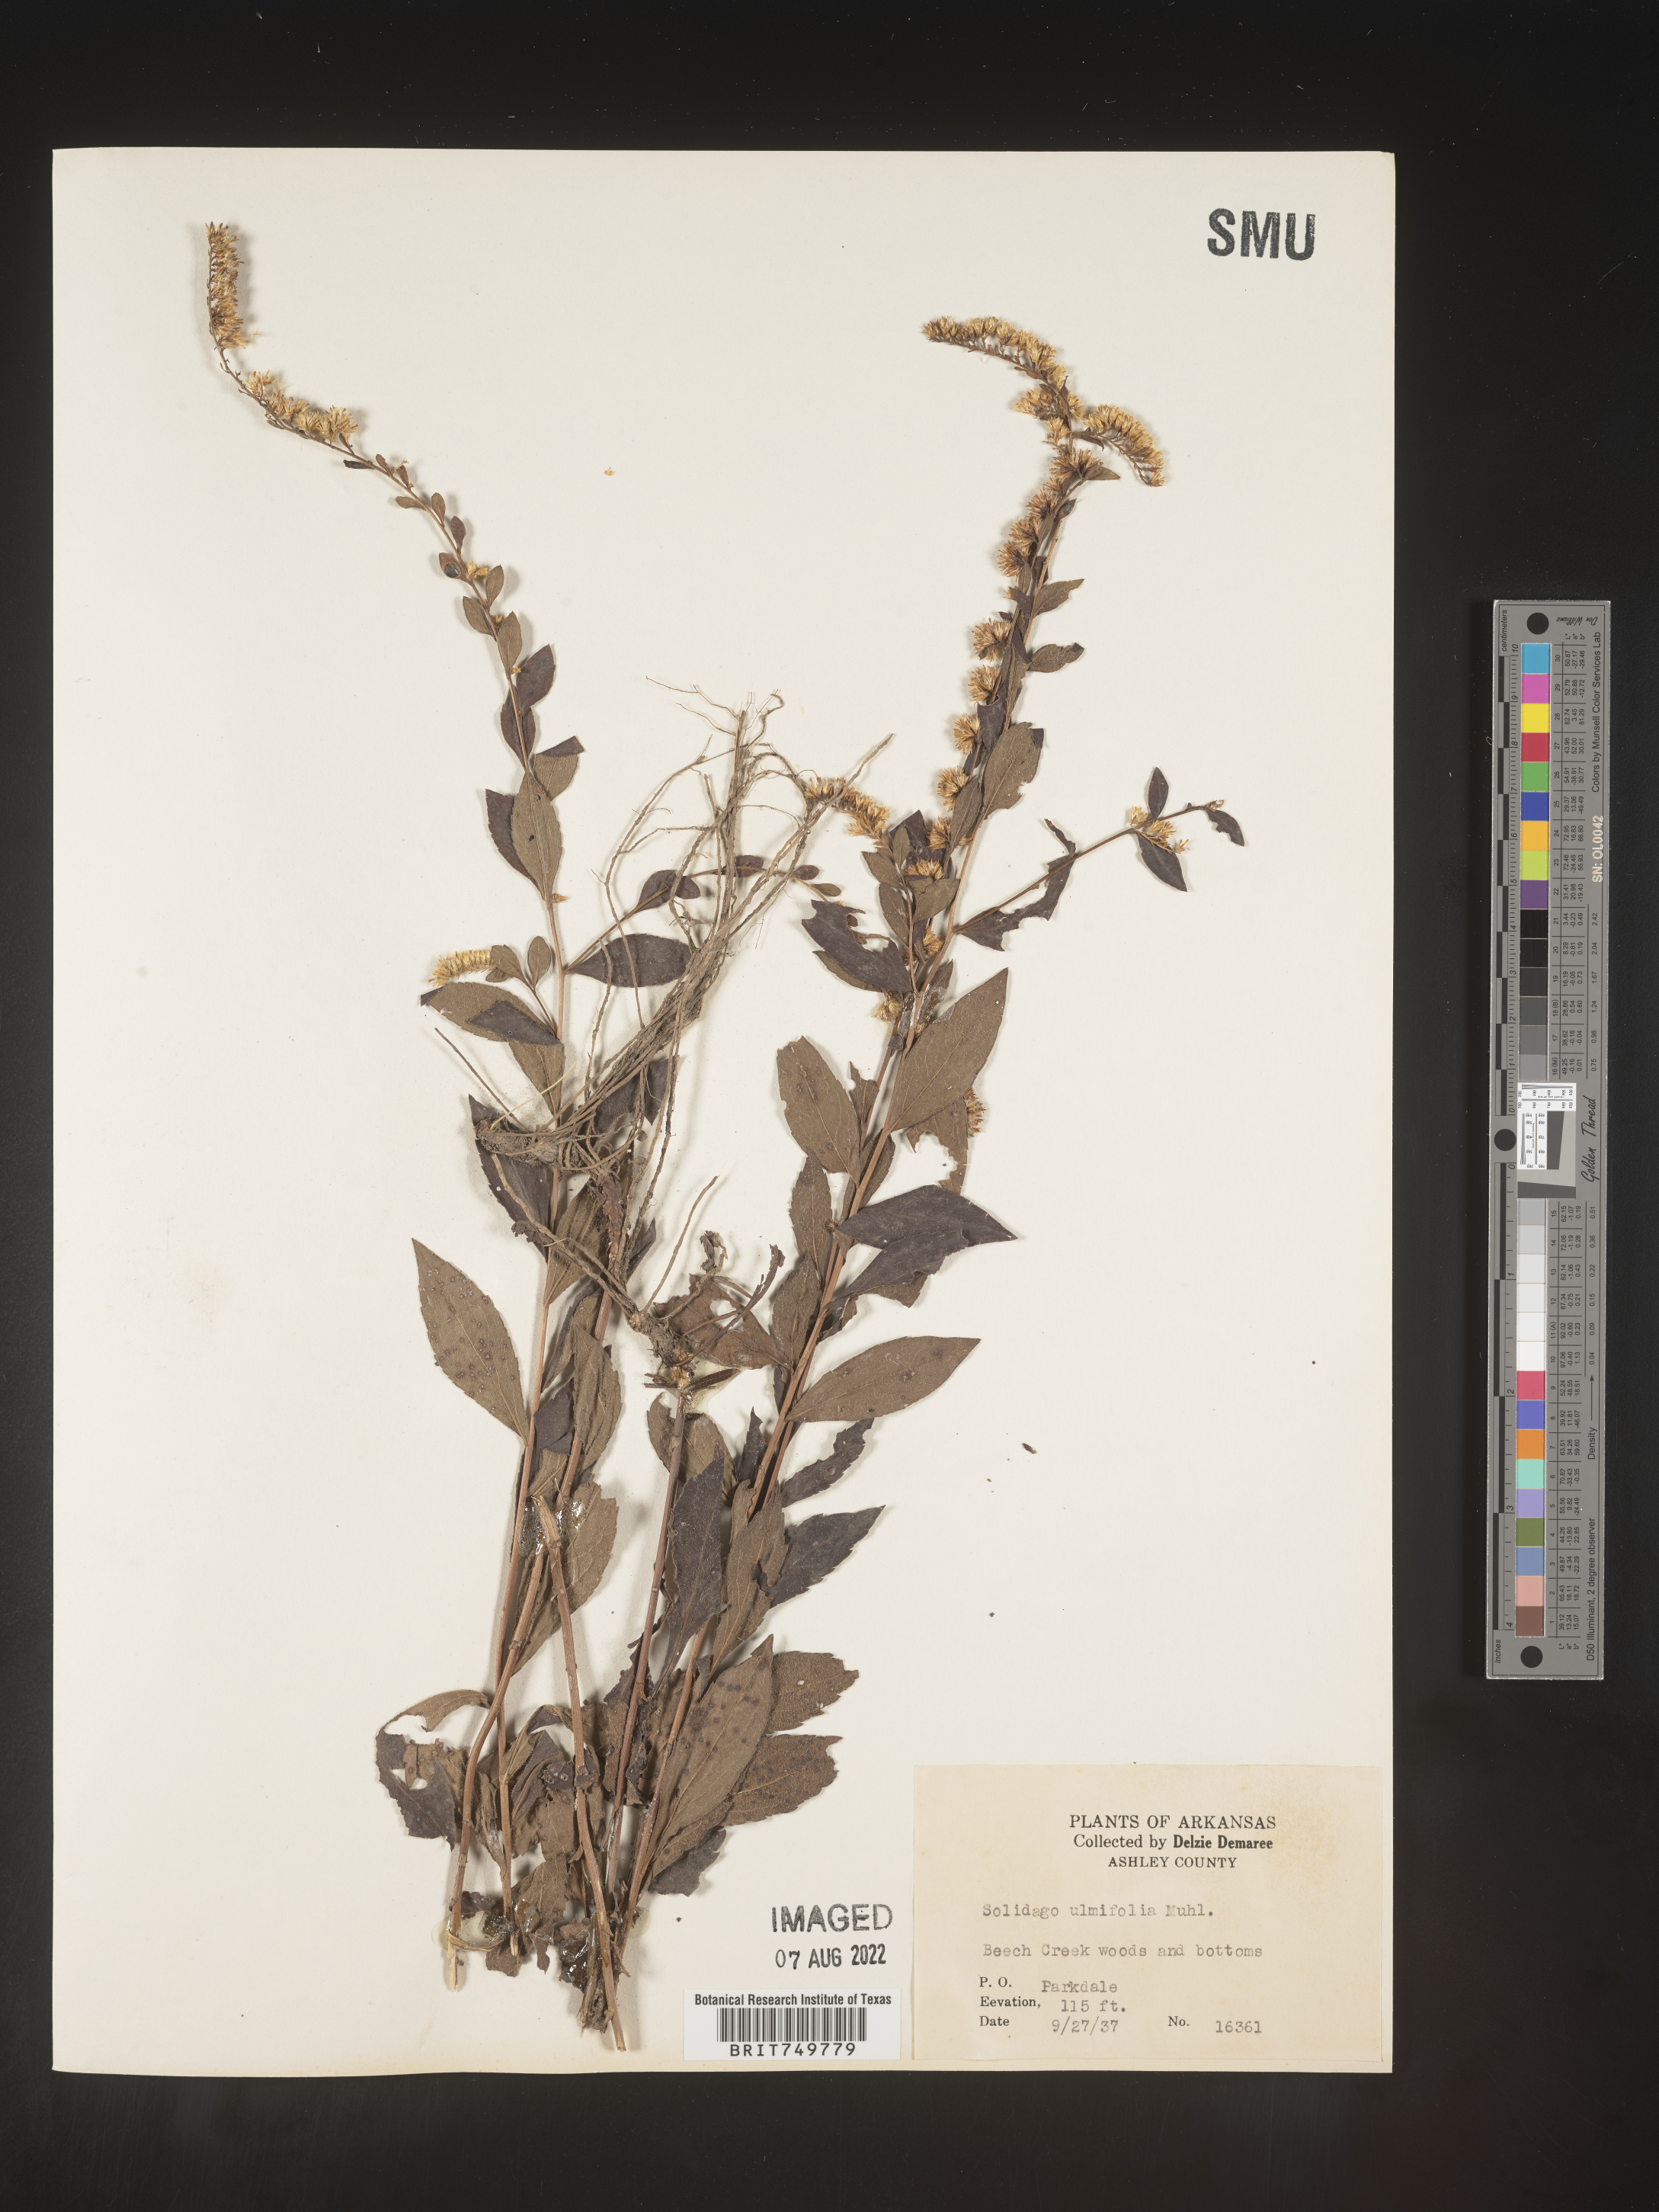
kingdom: Plantae
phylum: Tracheophyta
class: Magnoliopsida
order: Asterales
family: Asteraceae
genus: Solidago
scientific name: Solidago ulmifolia
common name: Elm-leaf goldenrod
